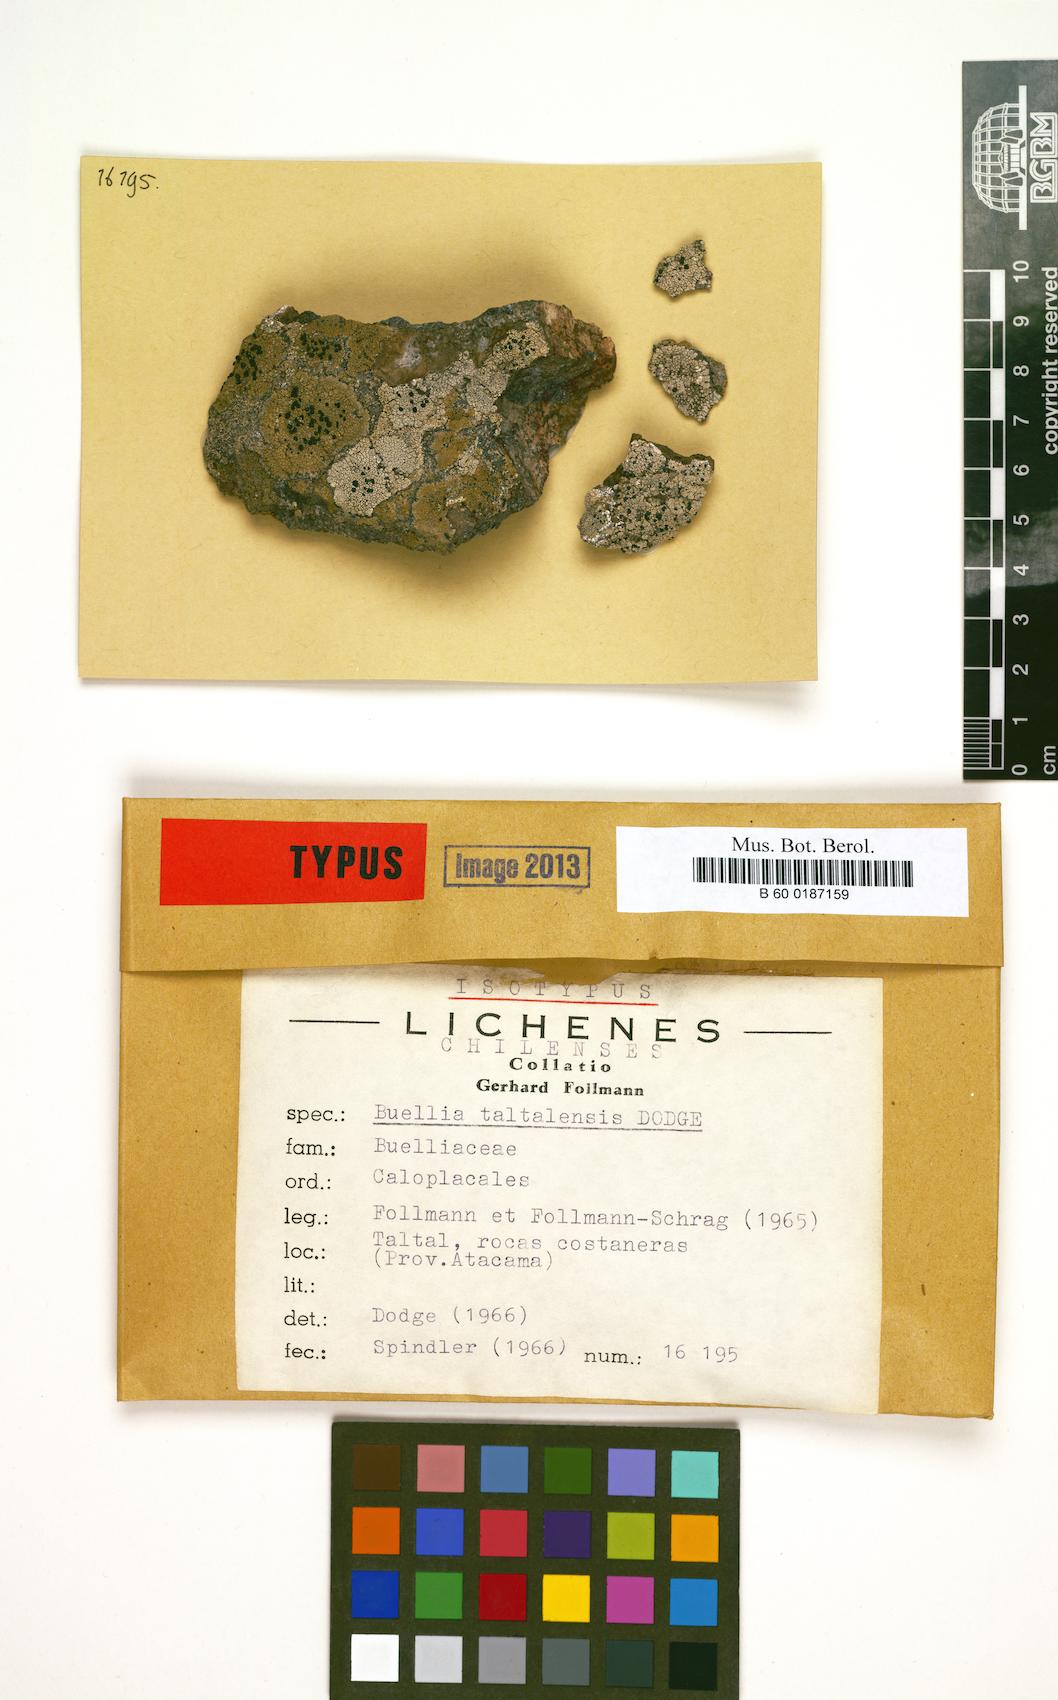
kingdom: Fungi
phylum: Ascomycota
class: Lecanoromycetes
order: Caliciales
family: Caliciaceae
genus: Buellia
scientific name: Buellia taltalensis
